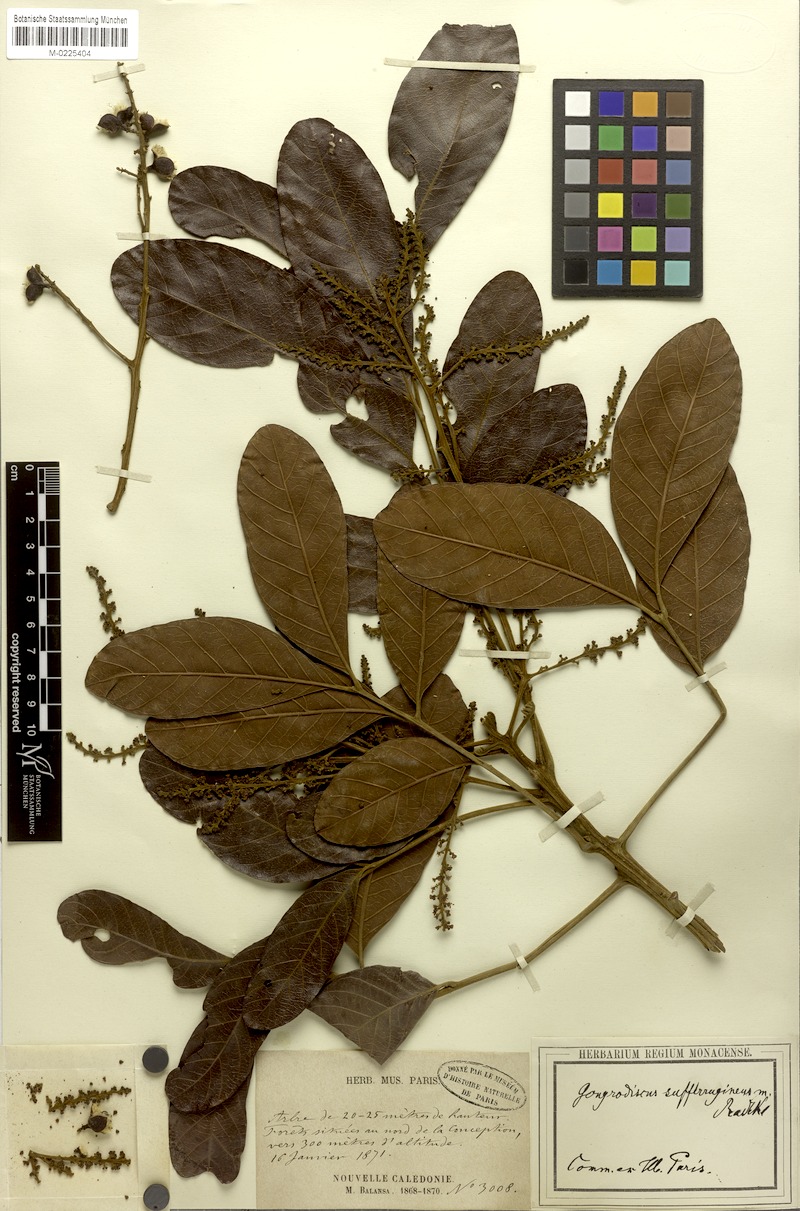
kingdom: Plantae
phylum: Tracheophyta
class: Magnoliopsida
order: Sapindales
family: Sapindaceae
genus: Gongrodiscus
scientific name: Gongrodiscus sufferrugineus
